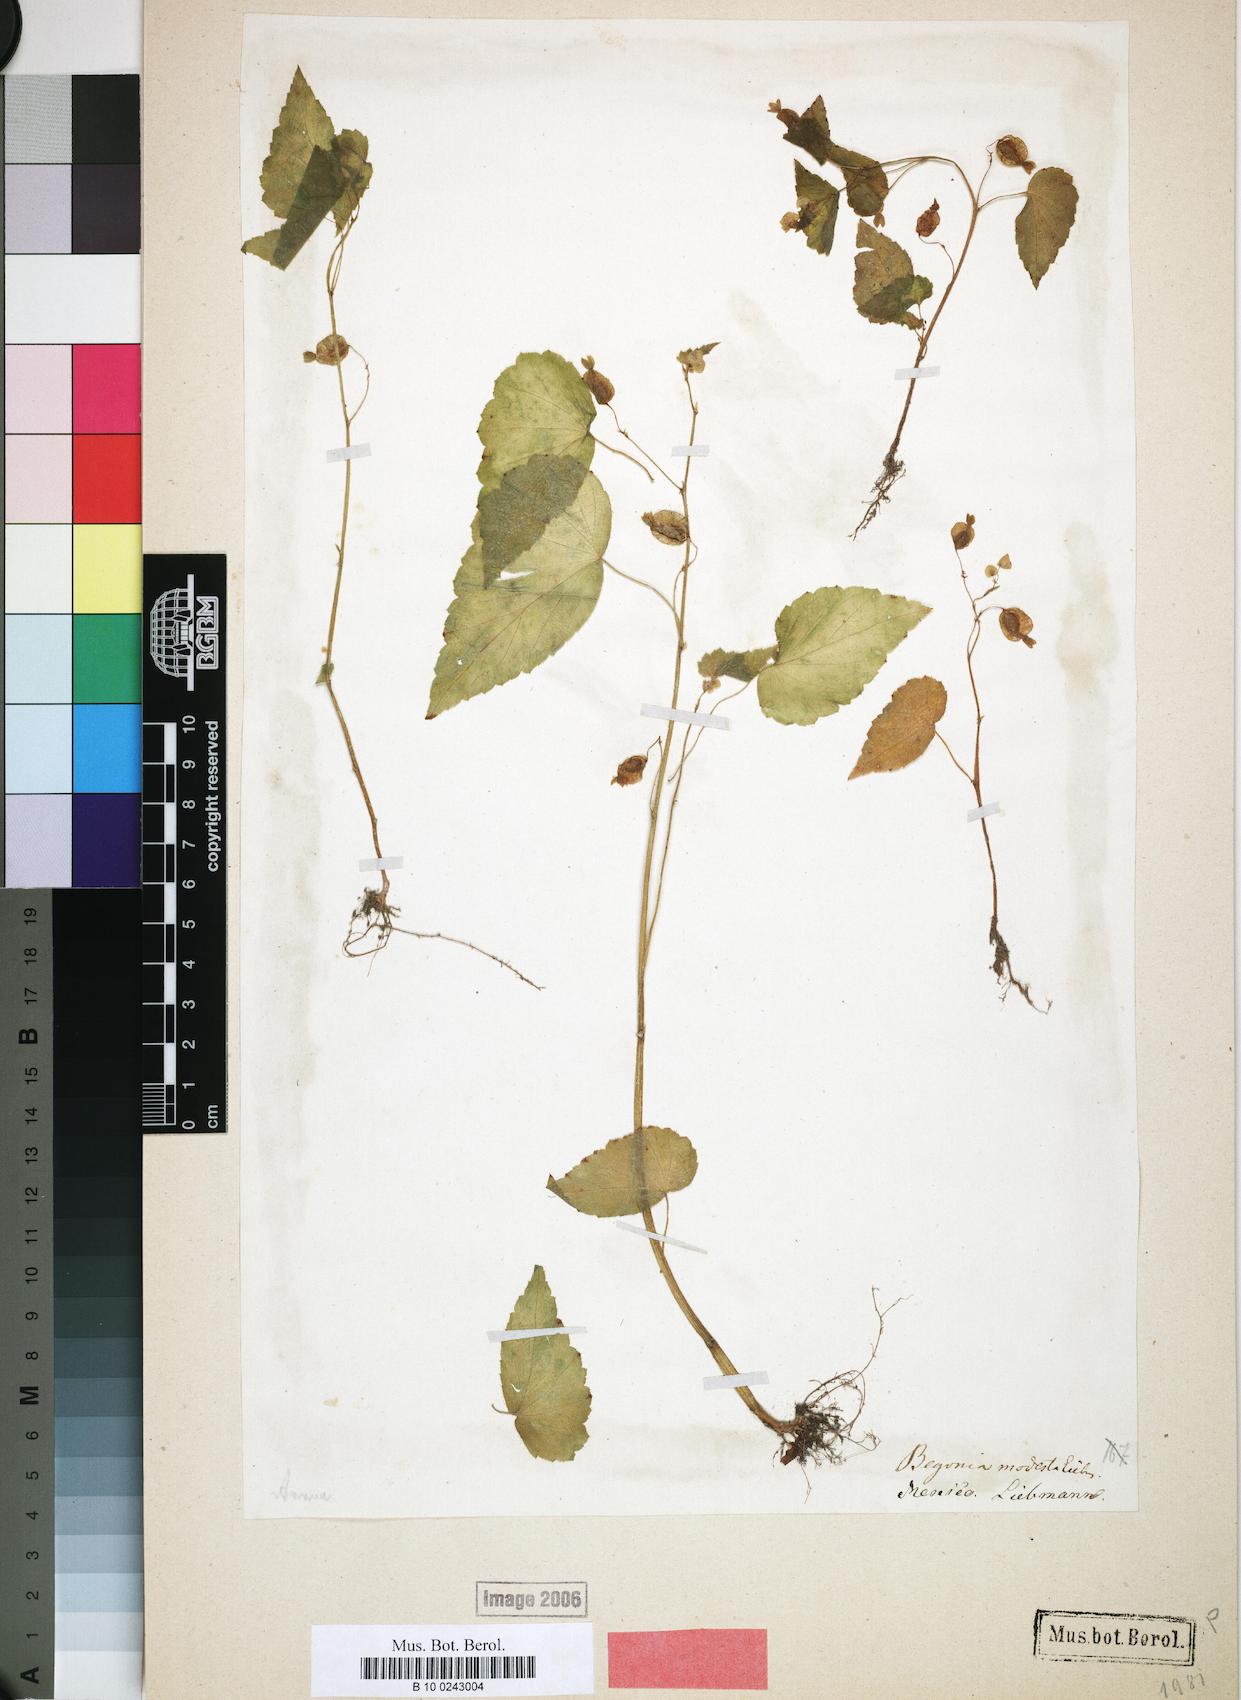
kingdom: Plantae
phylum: Tracheophyta
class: Magnoliopsida
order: Cucurbitales
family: Begoniaceae
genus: Begonia
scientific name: Begonia wallichiana
